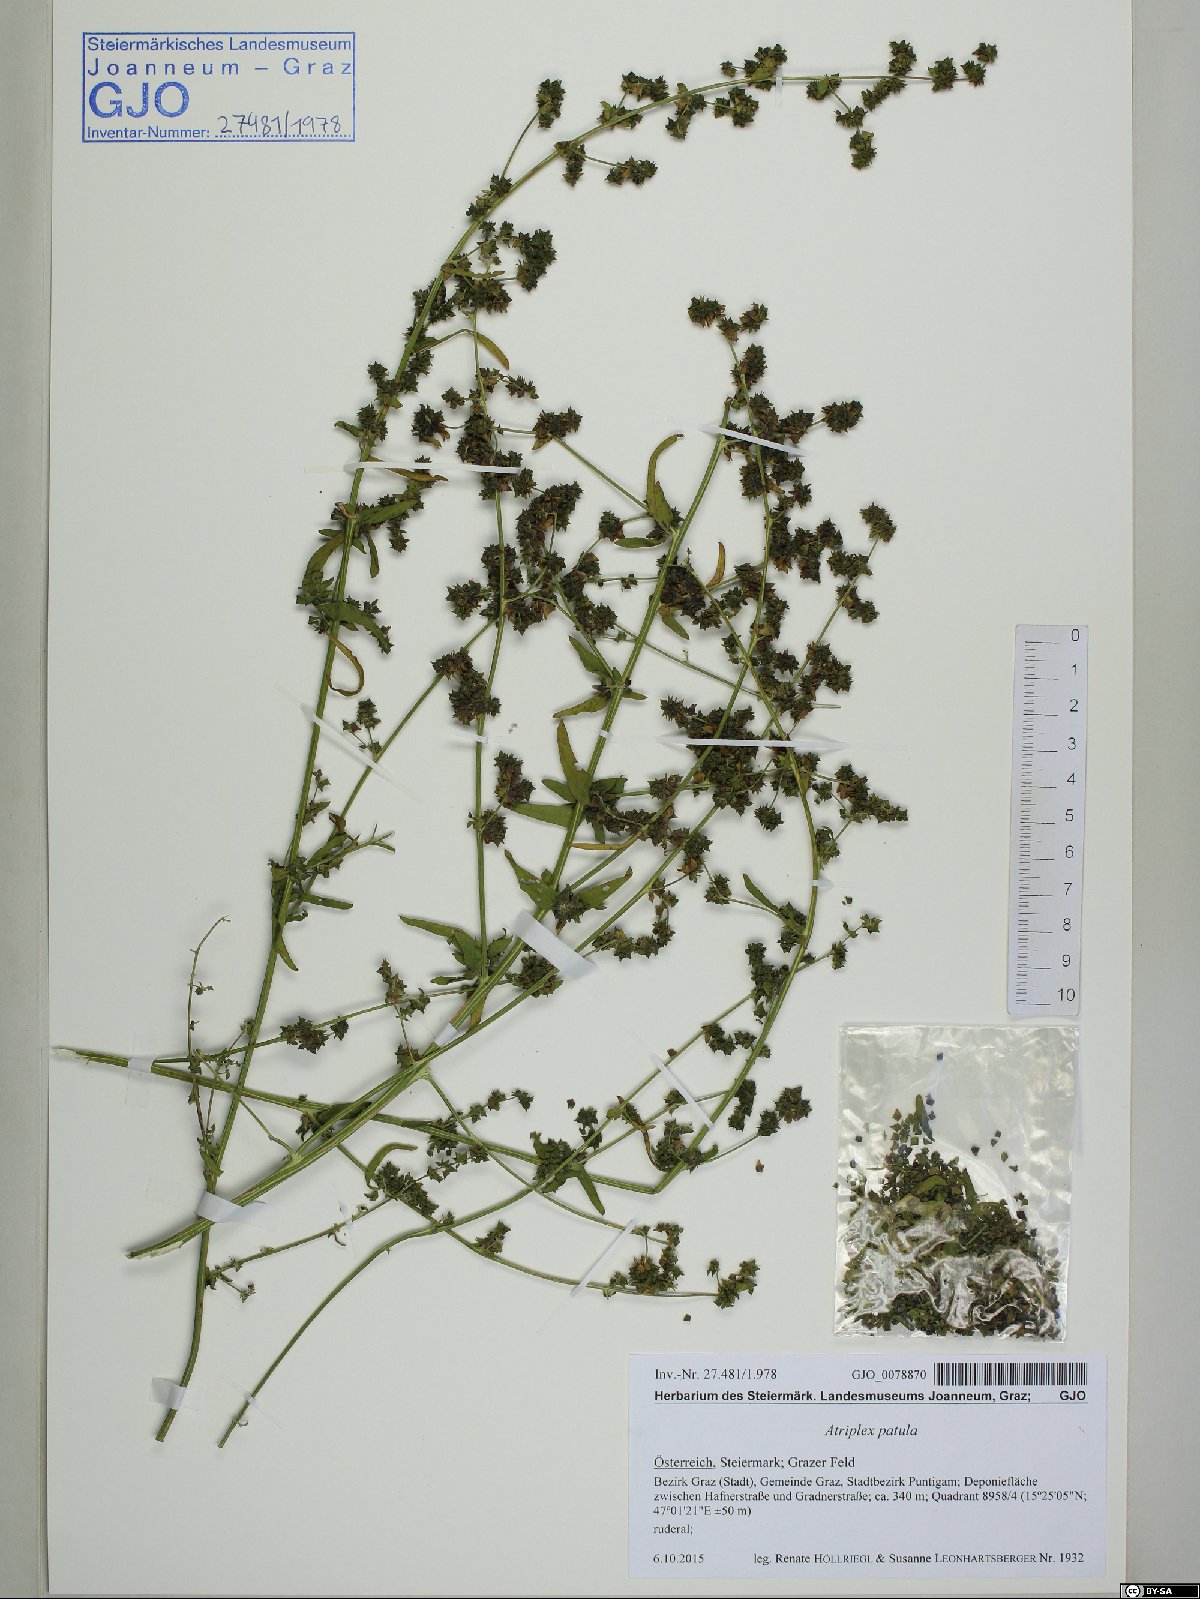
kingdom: Plantae
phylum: Tracheophyta
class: Magnoliopsida
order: Caryophyllales
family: Amaranthaceae
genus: Atriplex
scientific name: Atriplex patula
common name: Common orache
